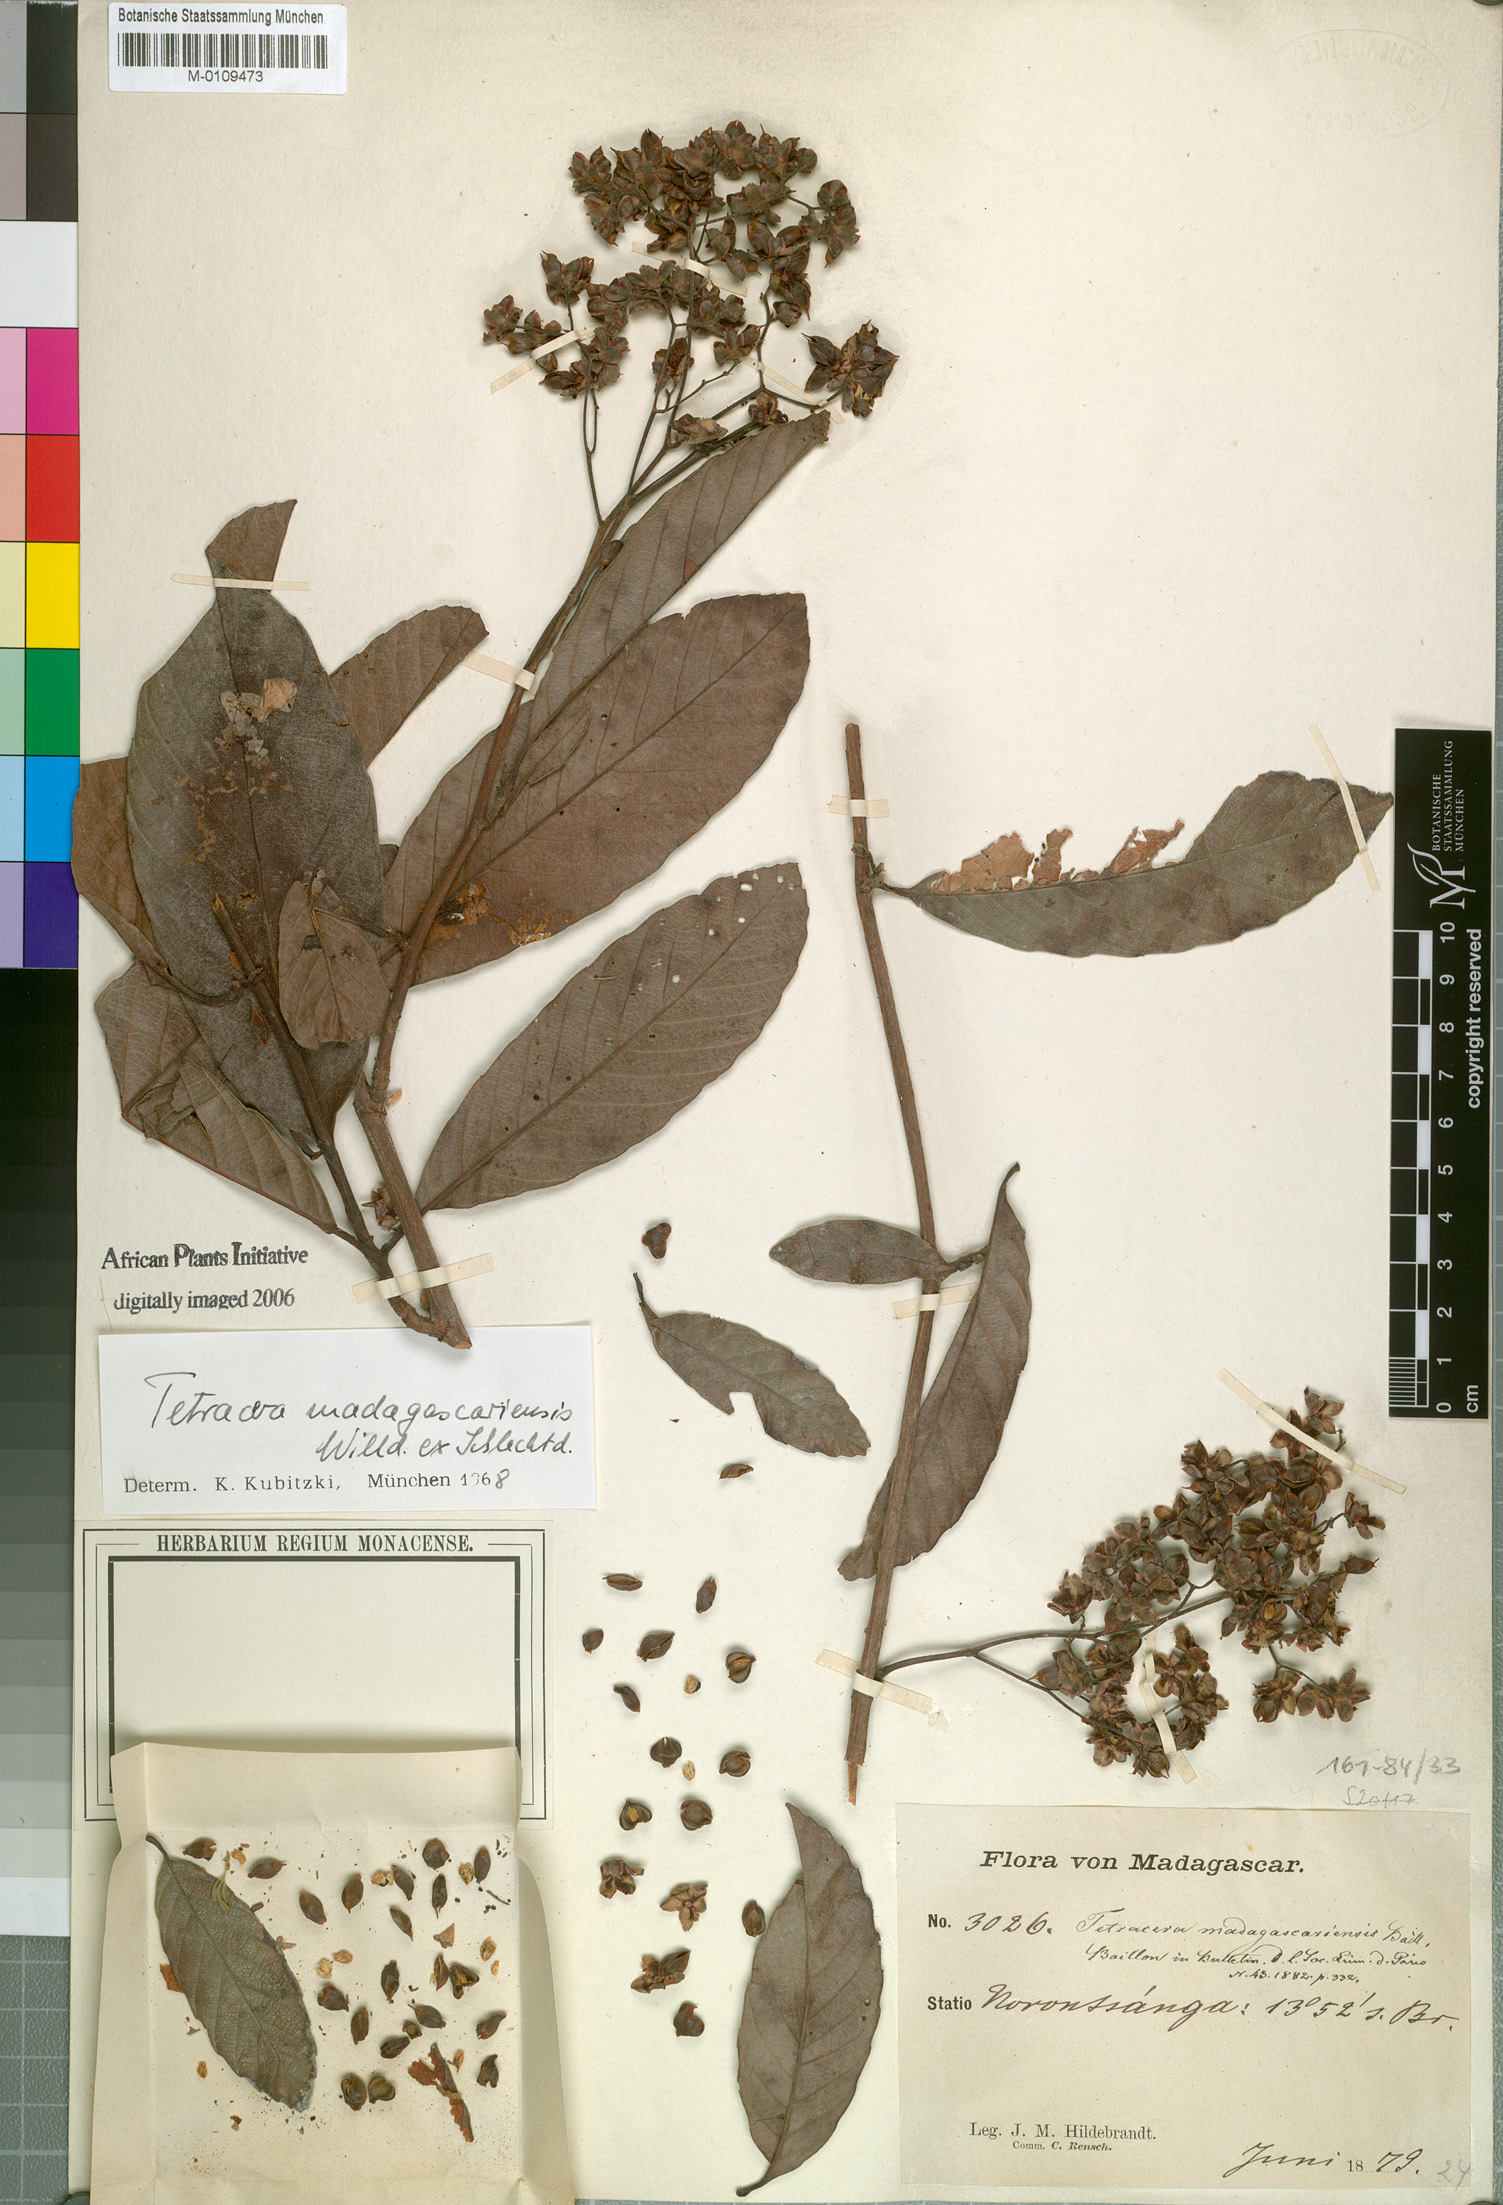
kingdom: Plantae
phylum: Tracheophyta
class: Magnoliopsida
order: Dilleniales
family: Dilleniaceae
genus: Tetracera
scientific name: Tetracera madagascariensis
